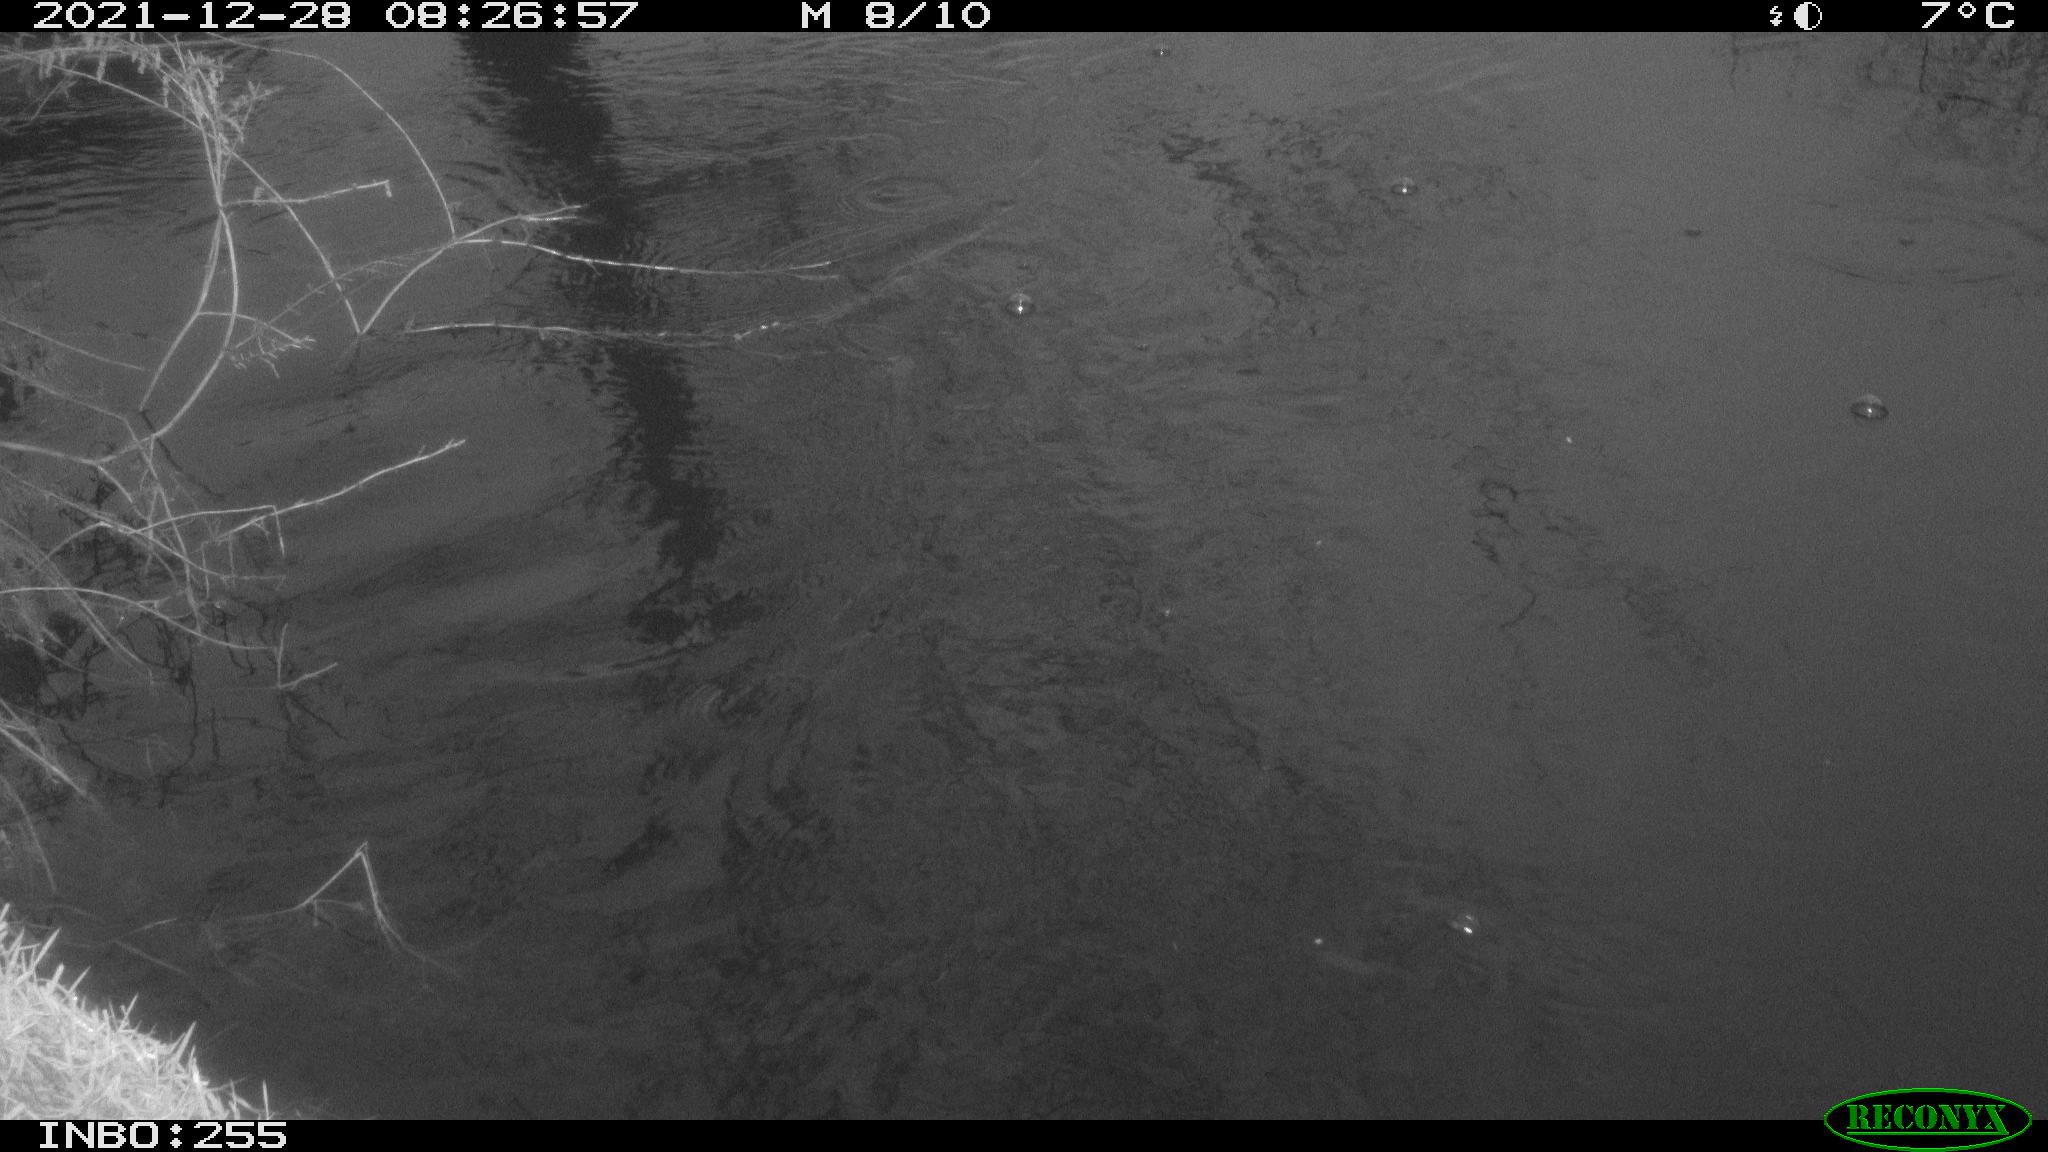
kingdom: Animalia
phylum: Chordata
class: Aves
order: Gruiformes
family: Rallidae
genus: Fulica
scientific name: Fulica atra
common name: Eurasian coot
